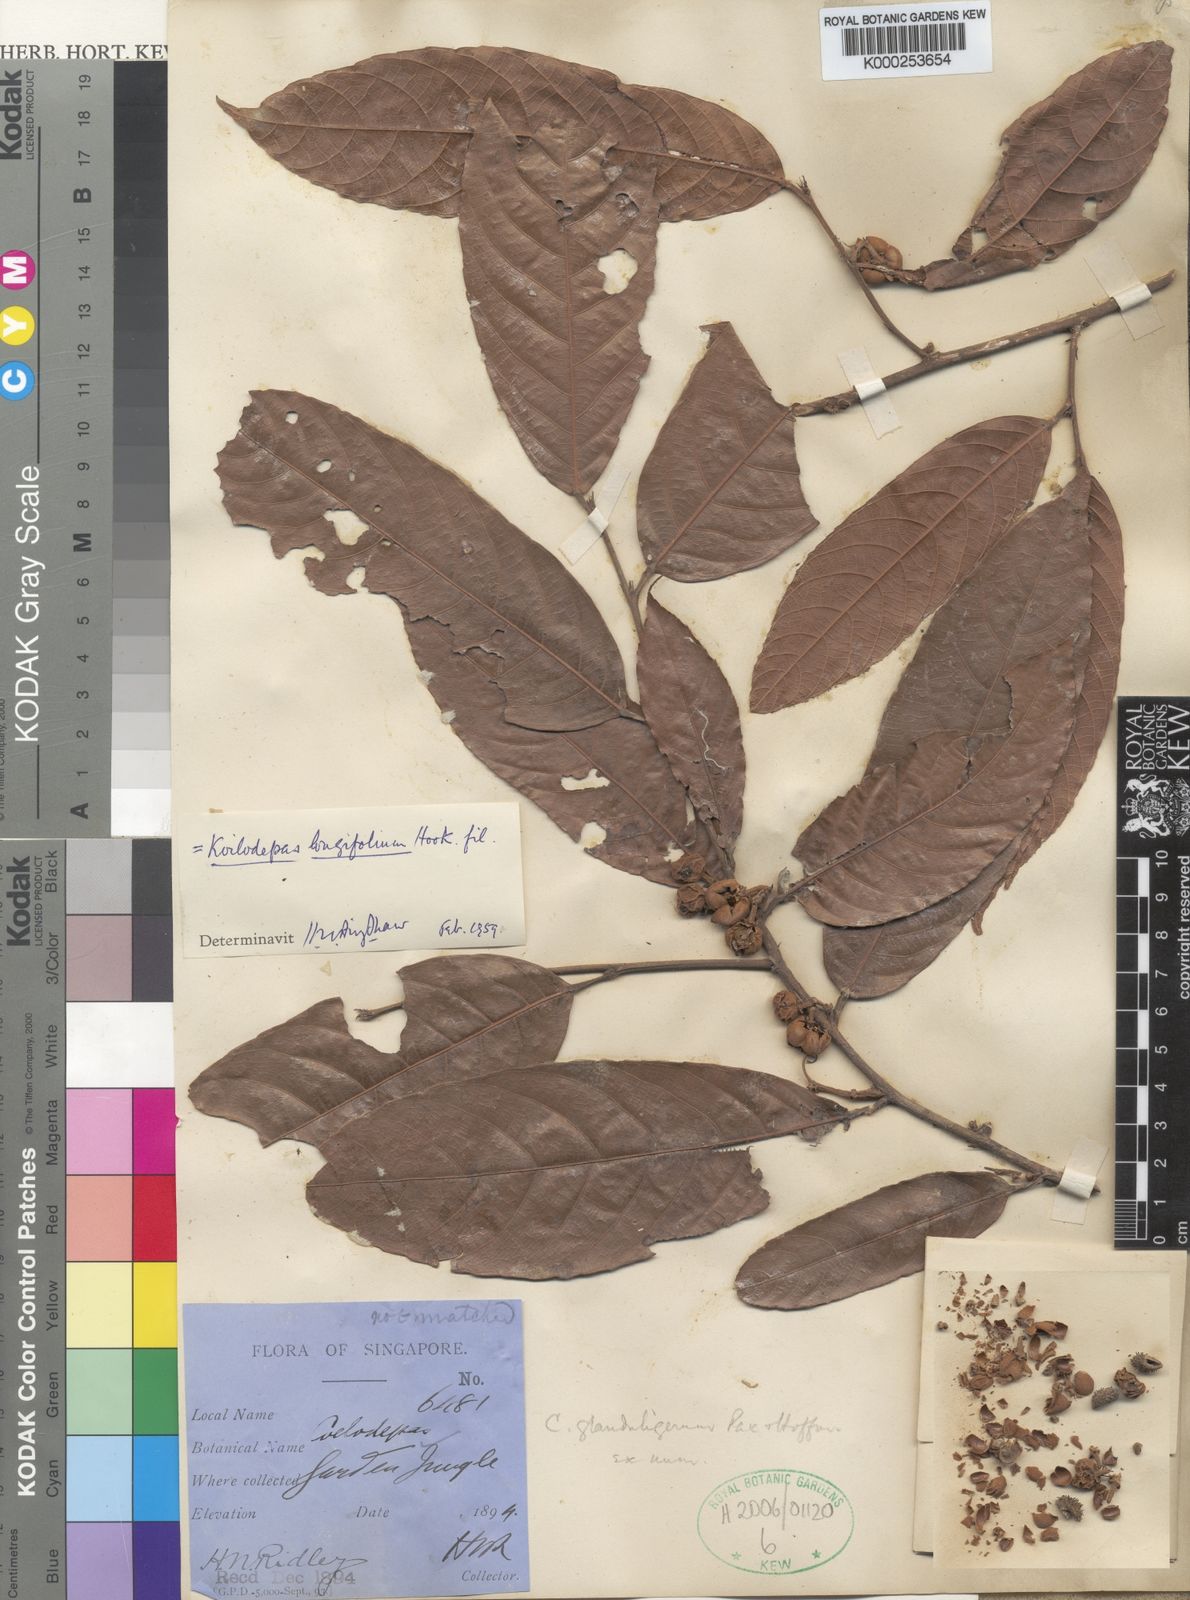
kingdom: Plantae
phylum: Tracheophyta
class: Magnoliopsida
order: Malpighiales
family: Euphorbiaceae
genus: Koilodepas
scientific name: Koilodepas longifolium
